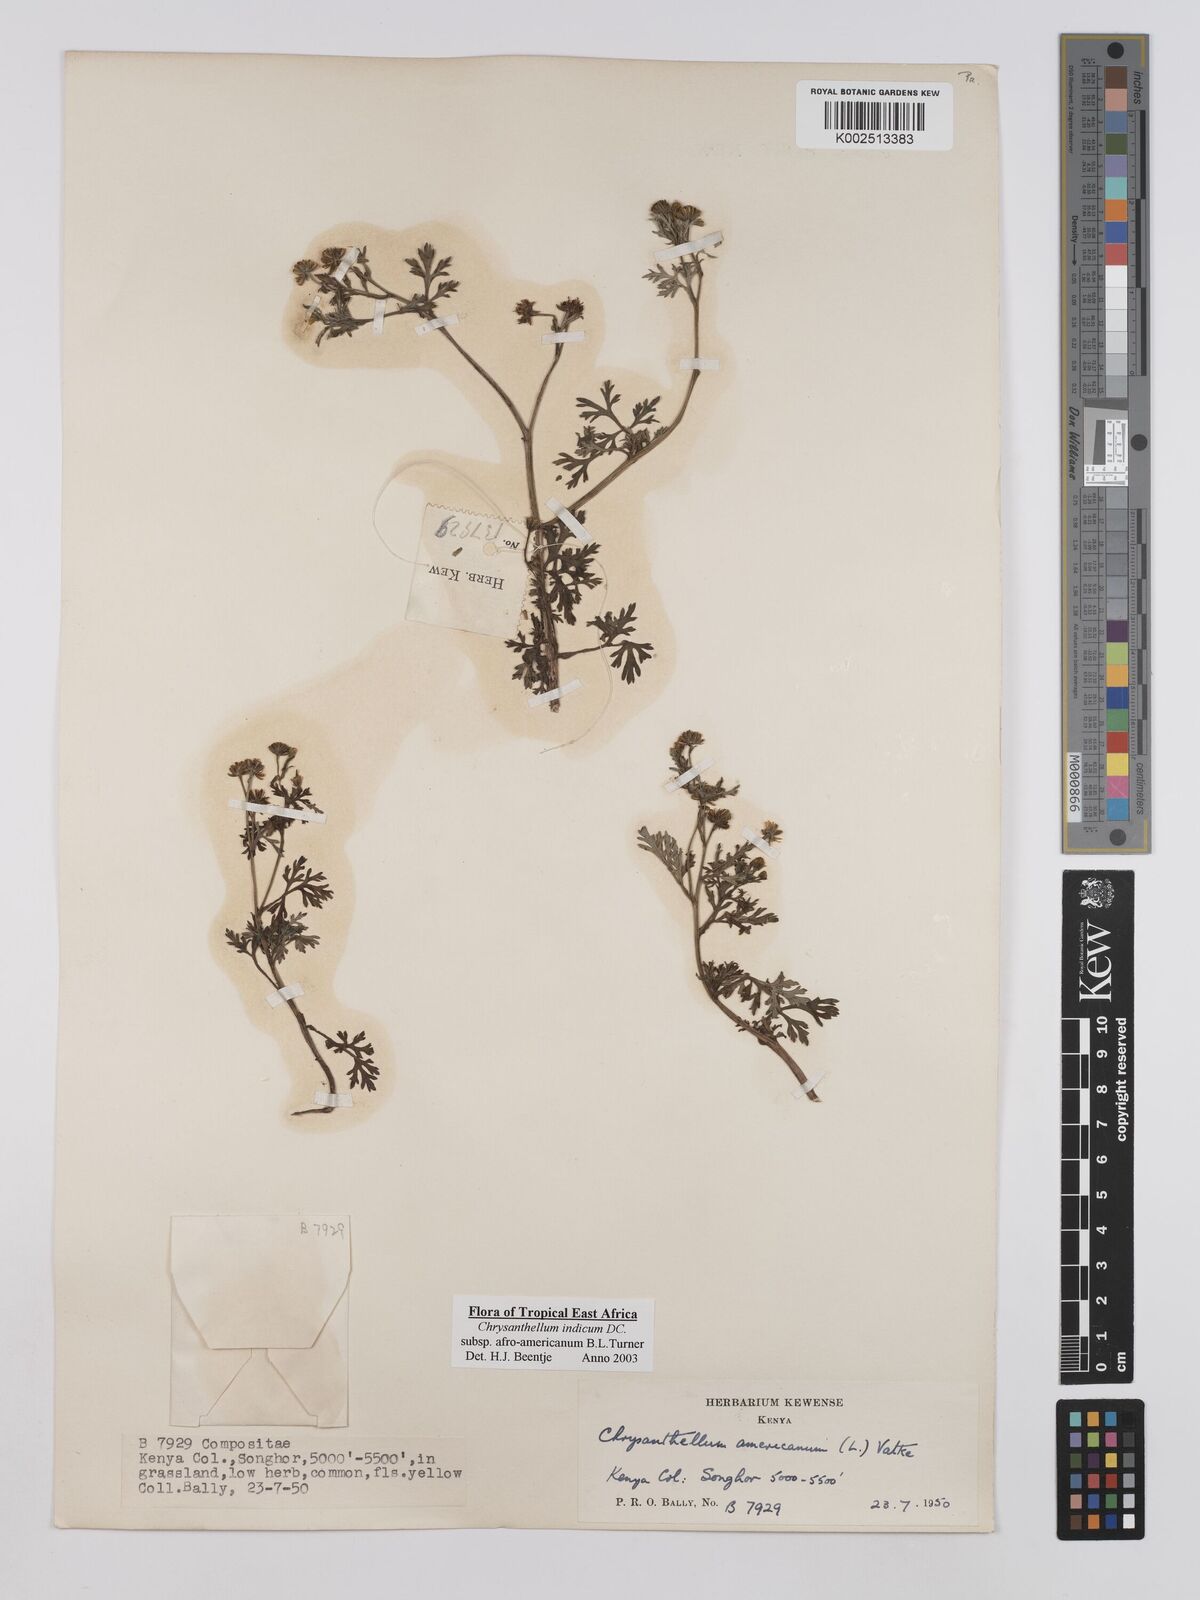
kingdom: Plantae
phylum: Tracheophyta
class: Magnoliopsida
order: Asterales
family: Asteraceae
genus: Chrysanthellum
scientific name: Chrysanthellum indicum
